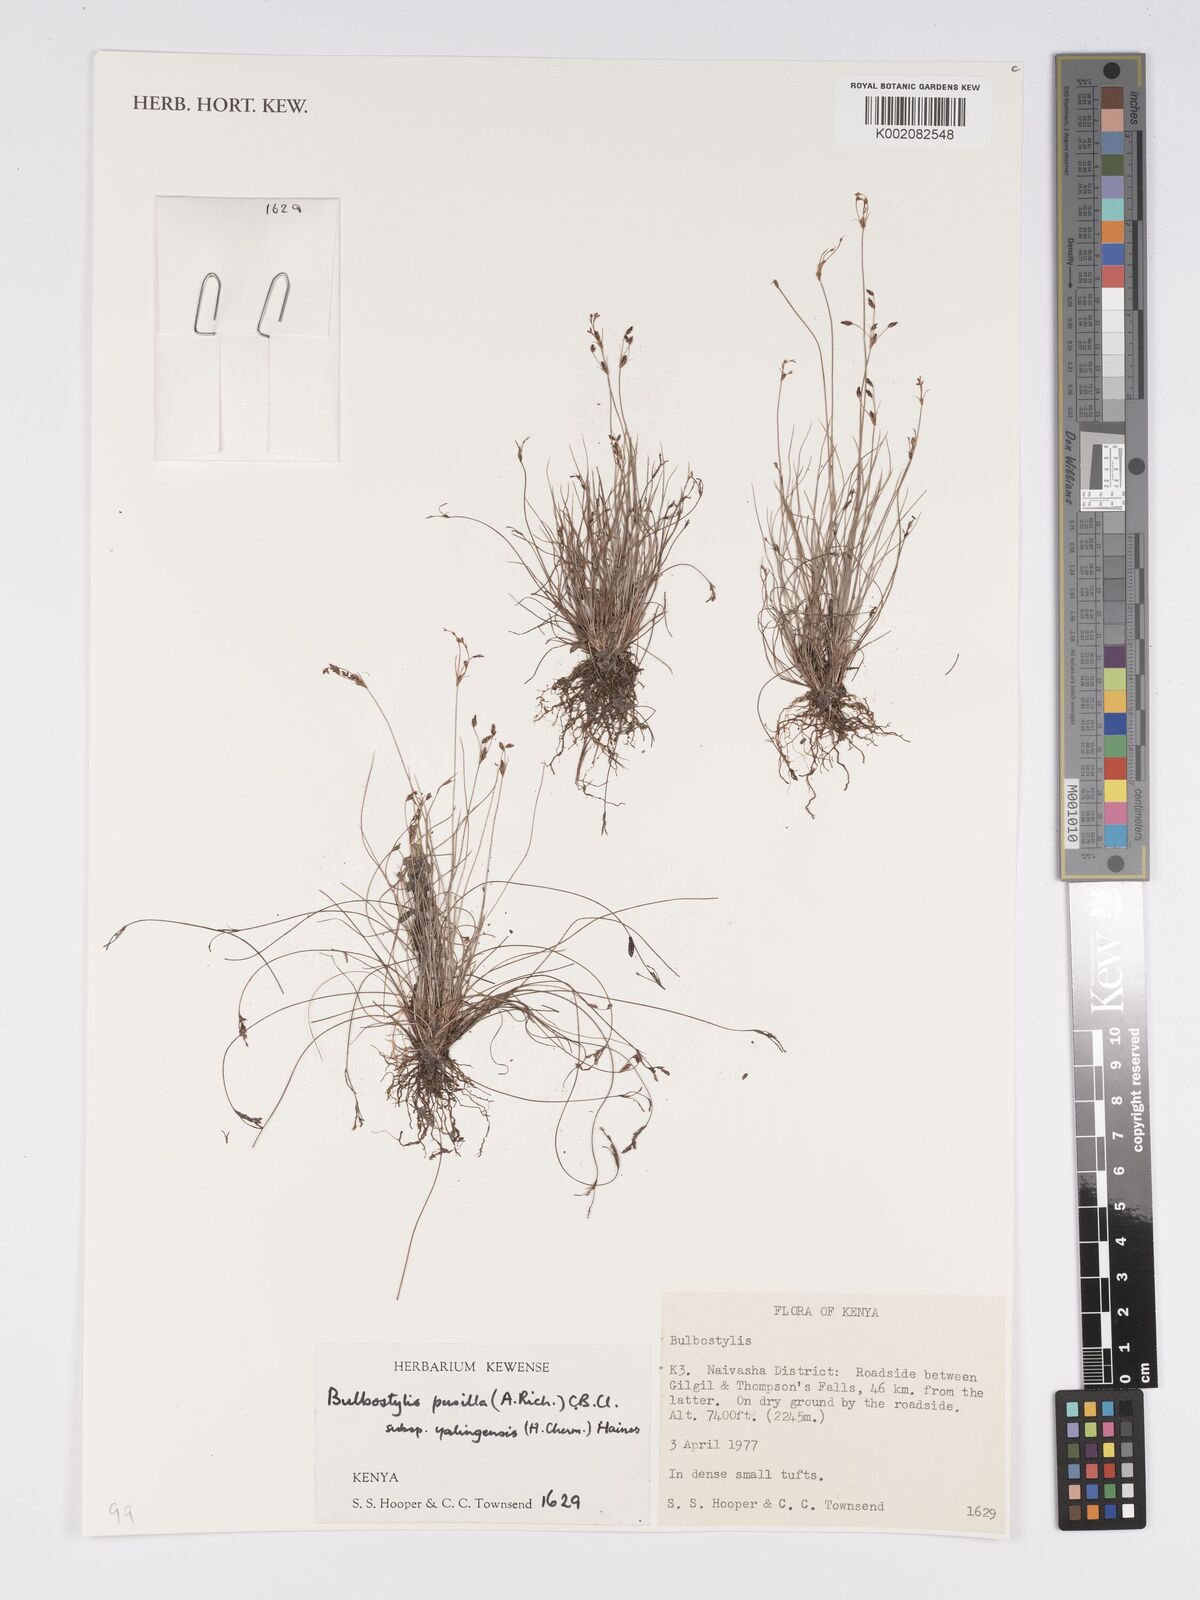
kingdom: Plantae
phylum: Tracheophyta
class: Liliopsida
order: Poales
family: Cyperaceae
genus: Bulbostylis
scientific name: Bulbostylis pusilla
